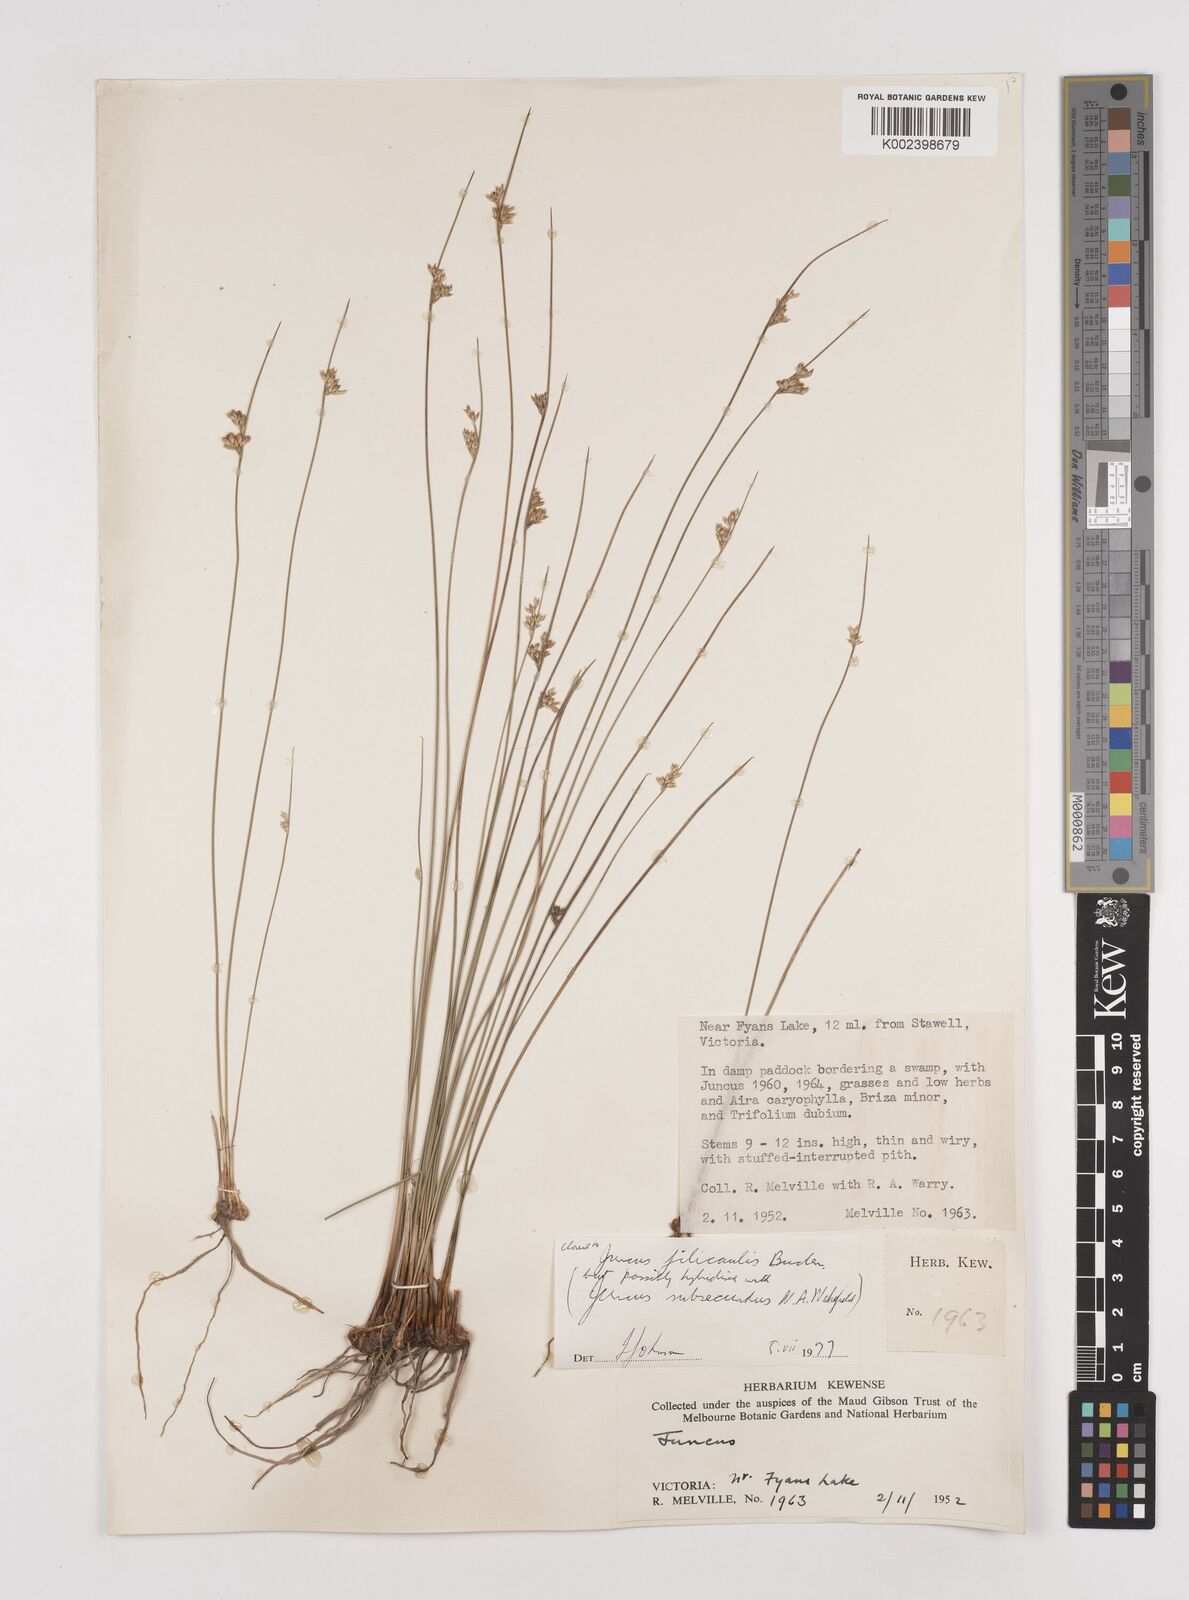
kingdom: Plantae
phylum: Tracheophyta
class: Liliopsida
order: Poales
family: Juncaceae
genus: Juncus
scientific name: Juncus filicaulis
